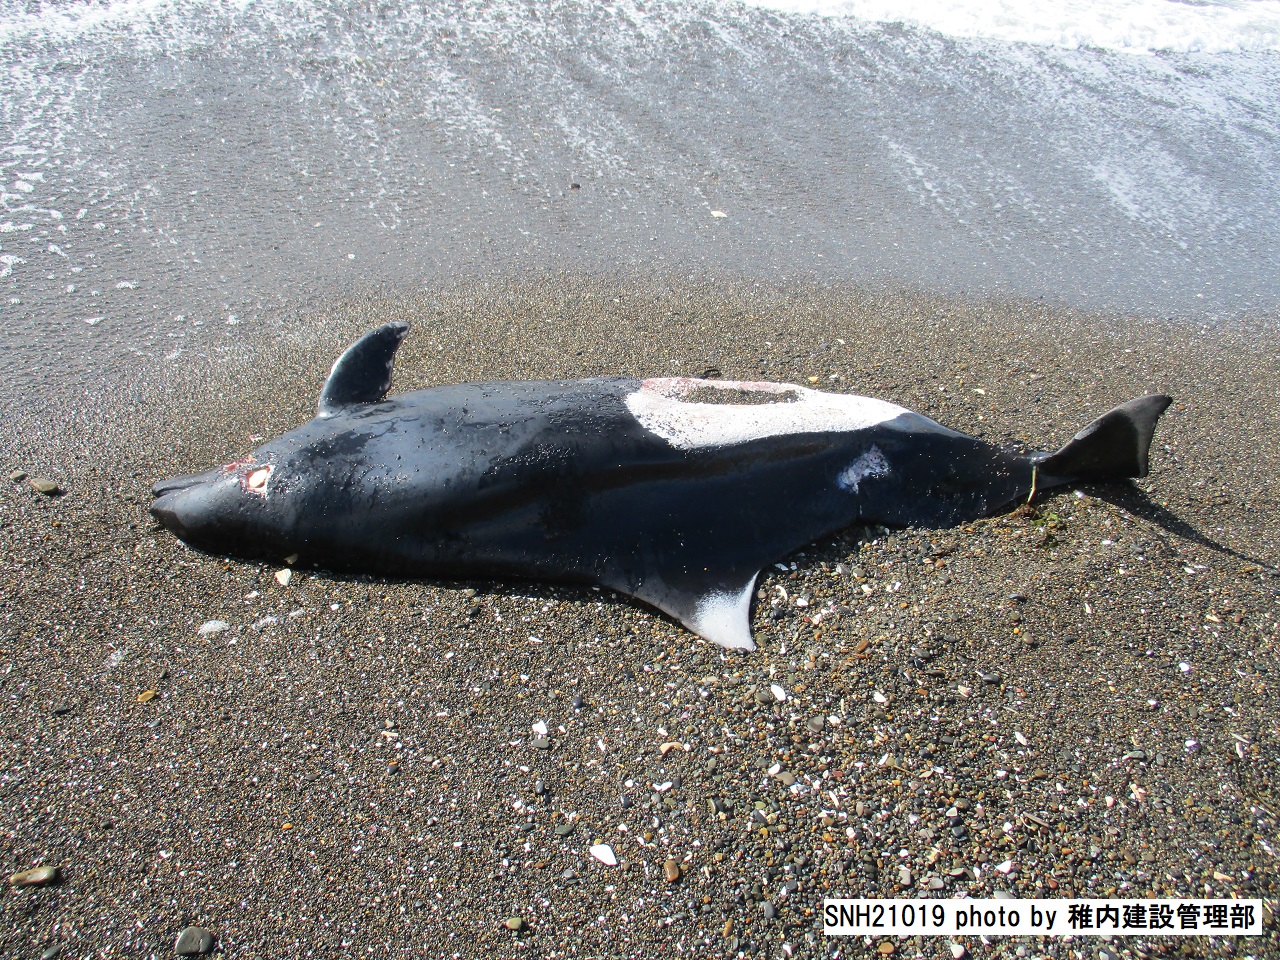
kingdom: Animalia
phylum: Chordata
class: Mammalia
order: Cetacea
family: Phocoenidae
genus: Phocoenoides
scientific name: Phocoenoides dalli
